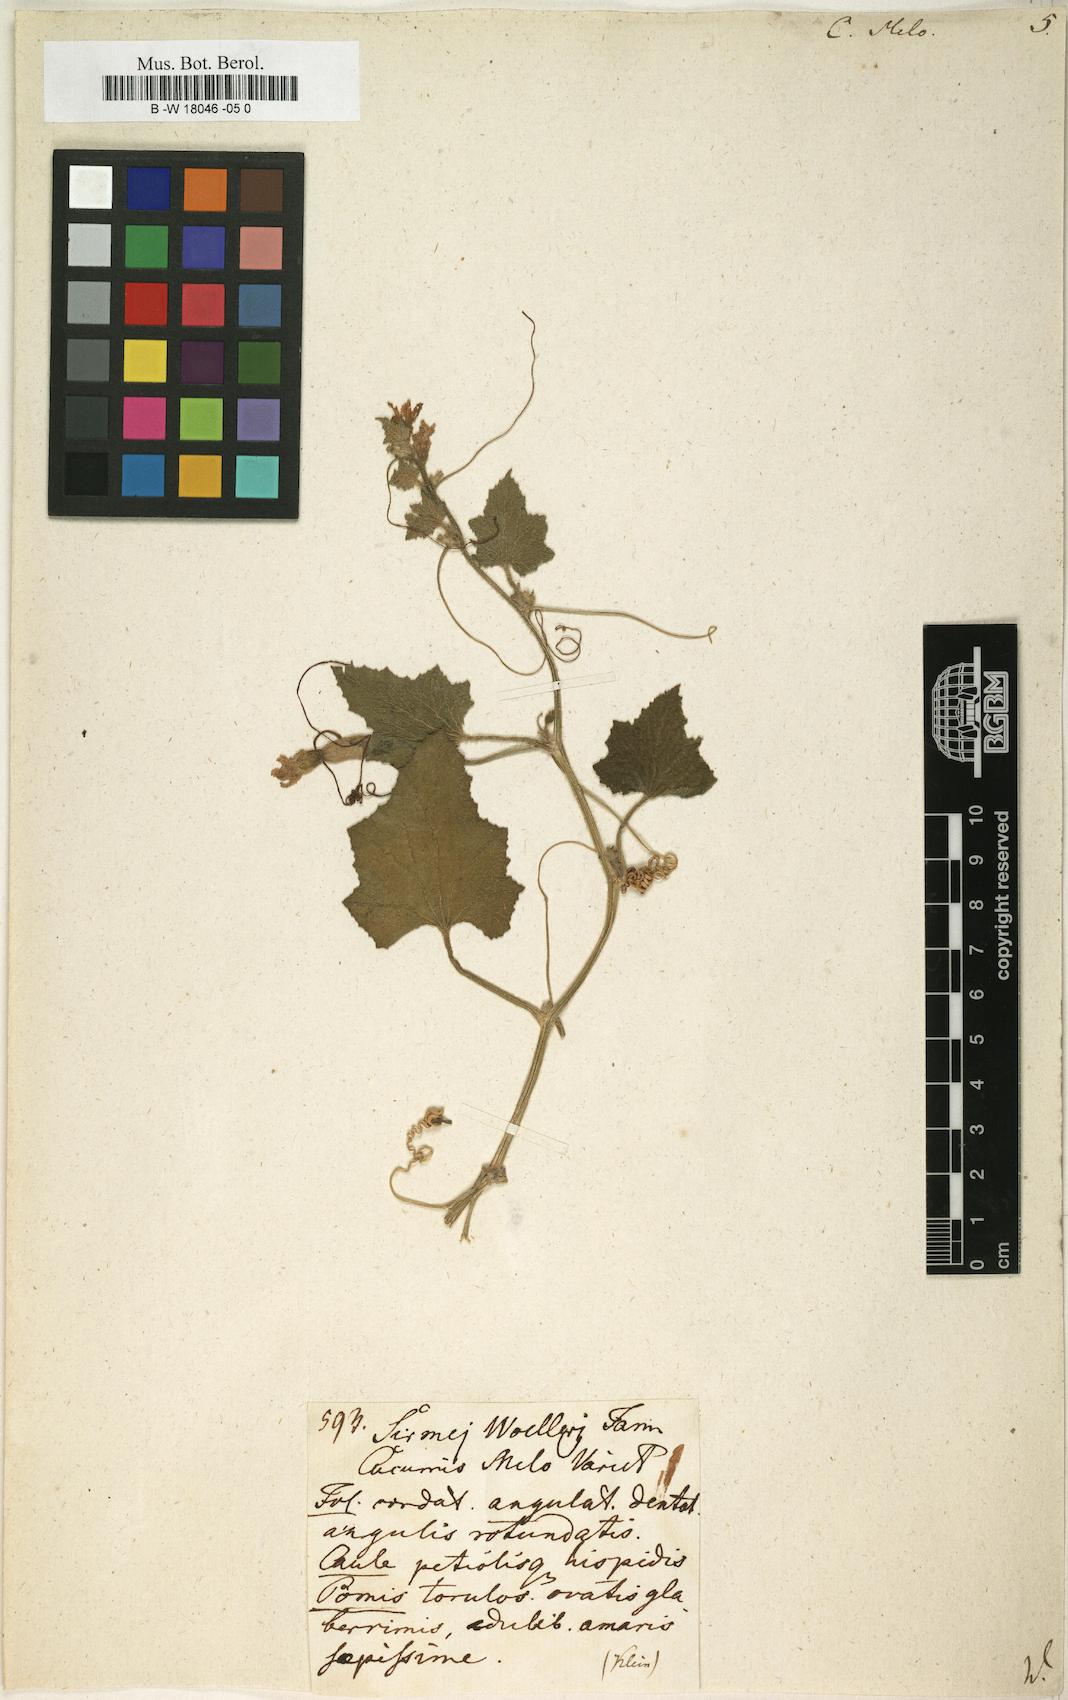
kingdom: Plantae
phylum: Tracheophyta
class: Magnoliopsida
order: Cucurbitales
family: Cucurbitaceae
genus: Cucumis
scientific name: Cucumis melo
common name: Melon
